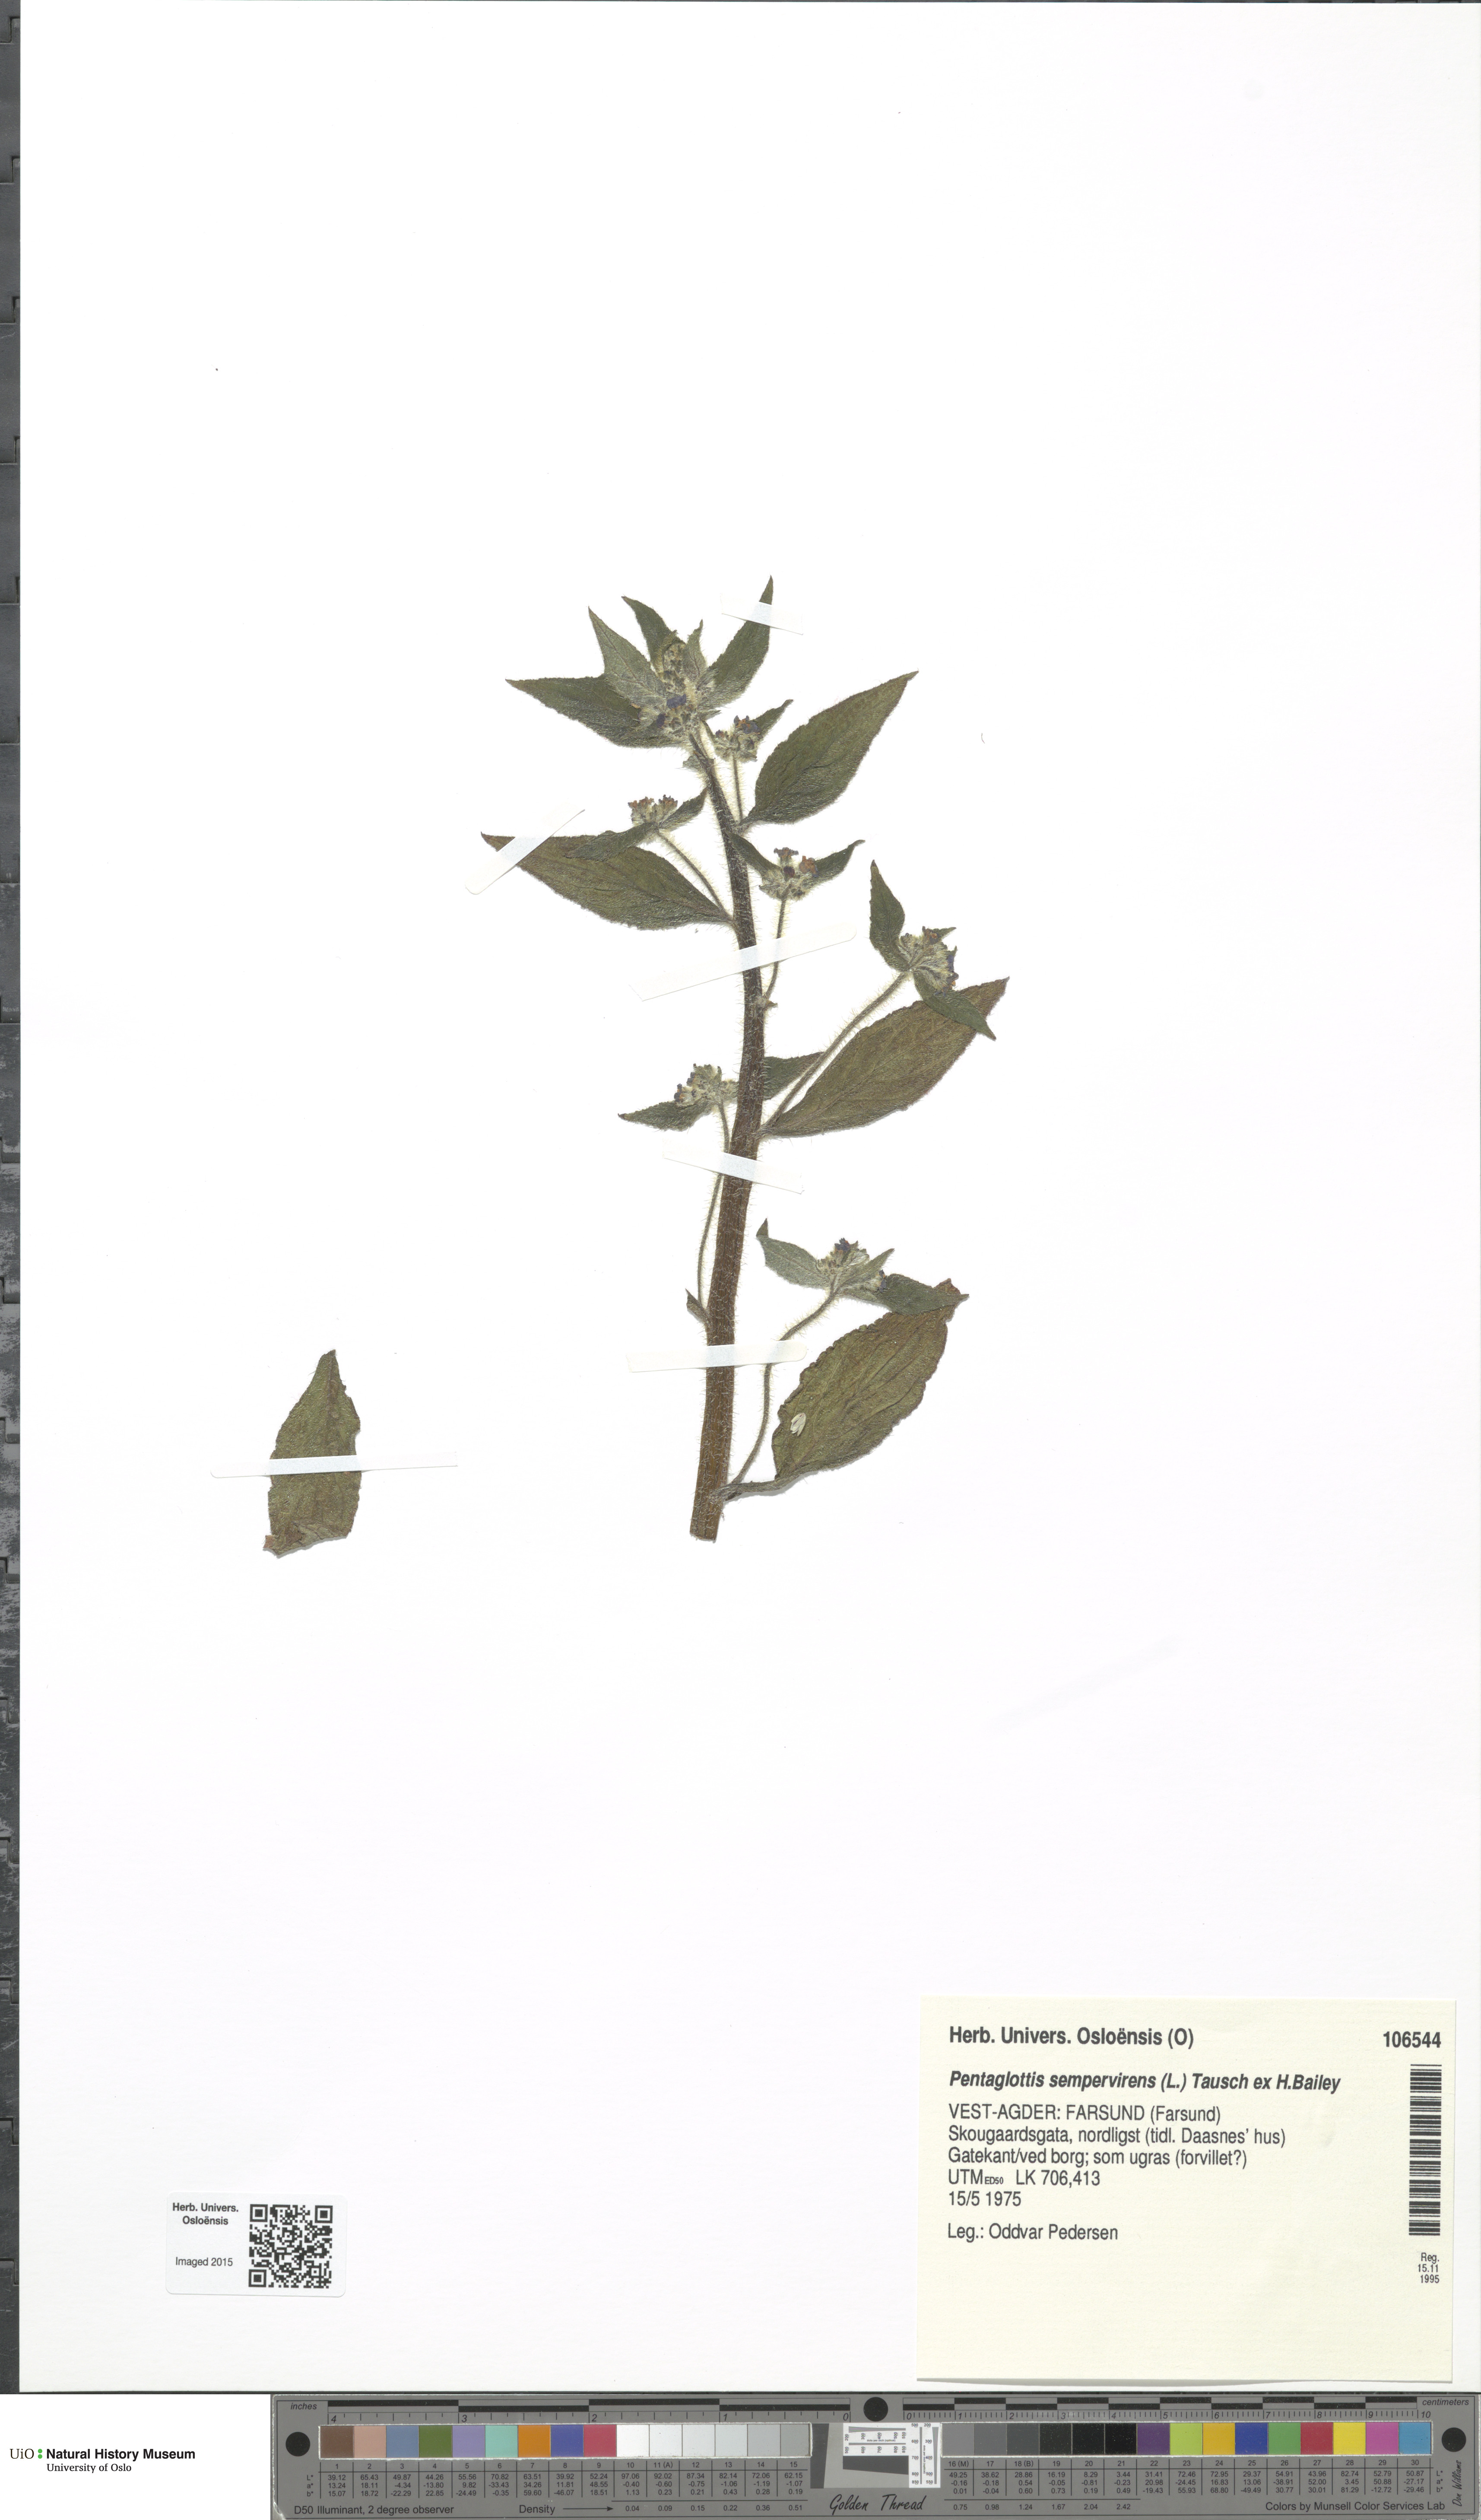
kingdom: Plantae
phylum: Tracheophyta
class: Magnoliopsida
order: Boraginales
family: Boraginaceae
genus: Pentaglottis
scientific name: Pentaglottis sempervirens
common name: Green alkanet
